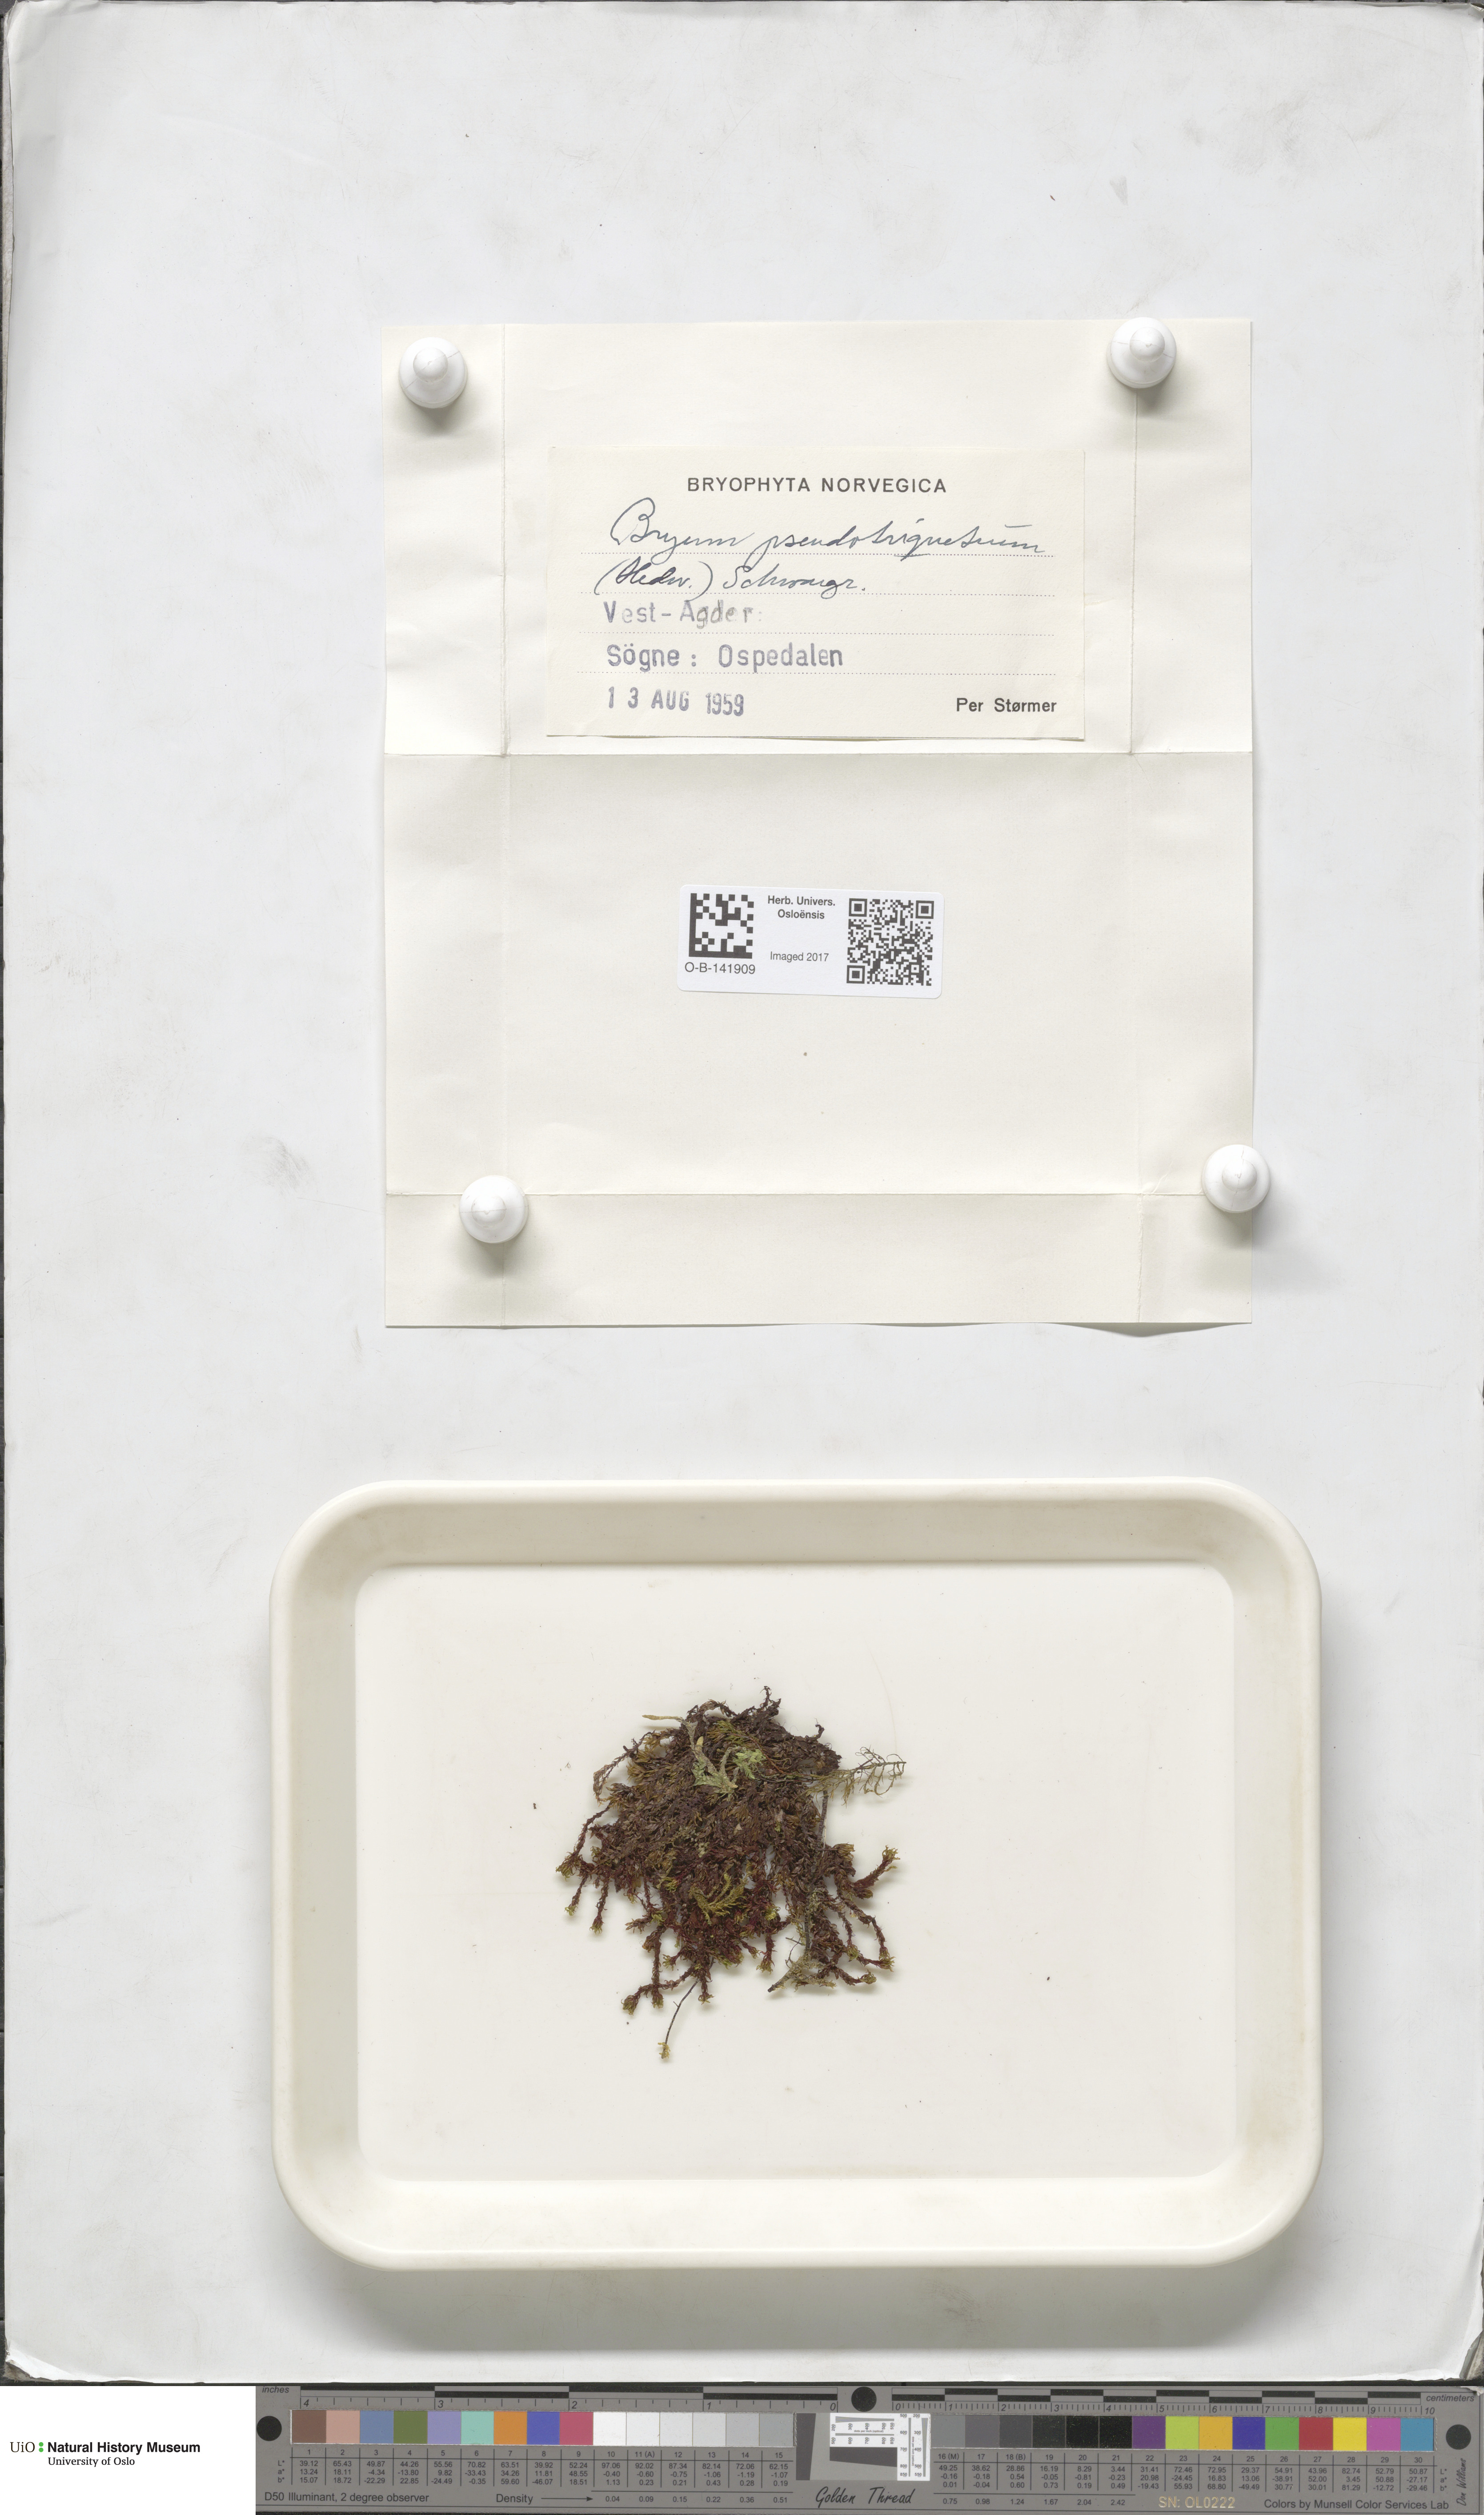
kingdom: Plantae
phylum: Bryophyta
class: Bryopsida
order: Bryales
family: Bryaceae
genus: Ptychostomum
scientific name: Ptychostomum pseudotriquetrum
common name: Long-leaved thread moss
